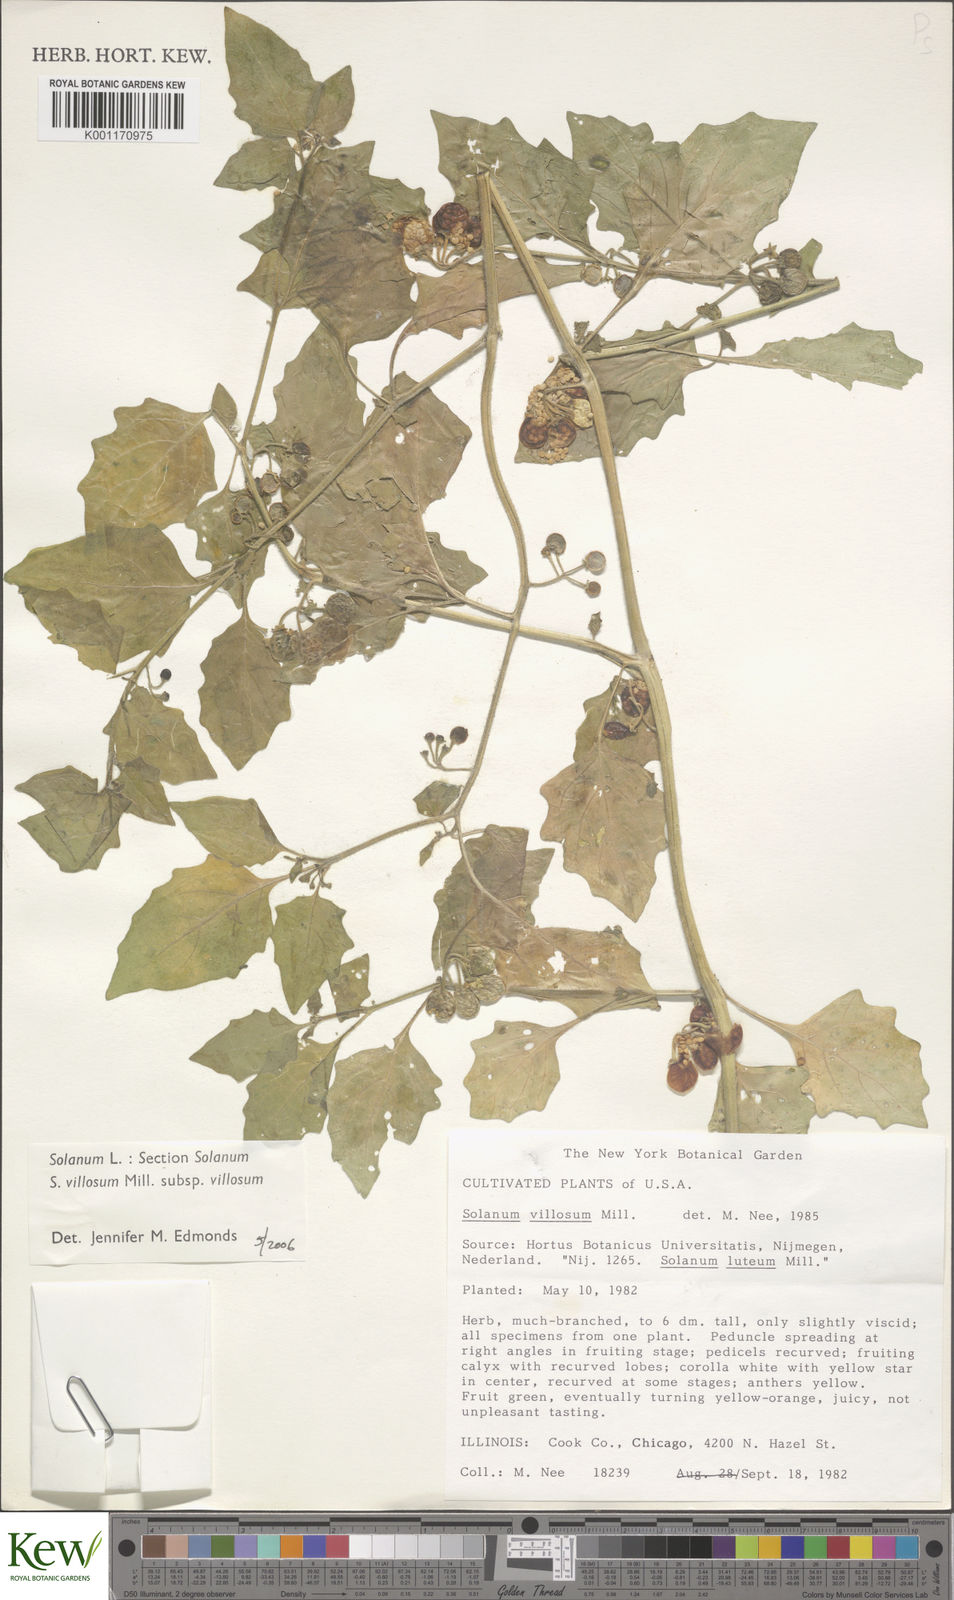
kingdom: Plantae
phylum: Tracheophyta
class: Magnoliopsida
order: Solanales
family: Solanaceae
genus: Solanum
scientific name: Solanum villosum
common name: Red nightshade
